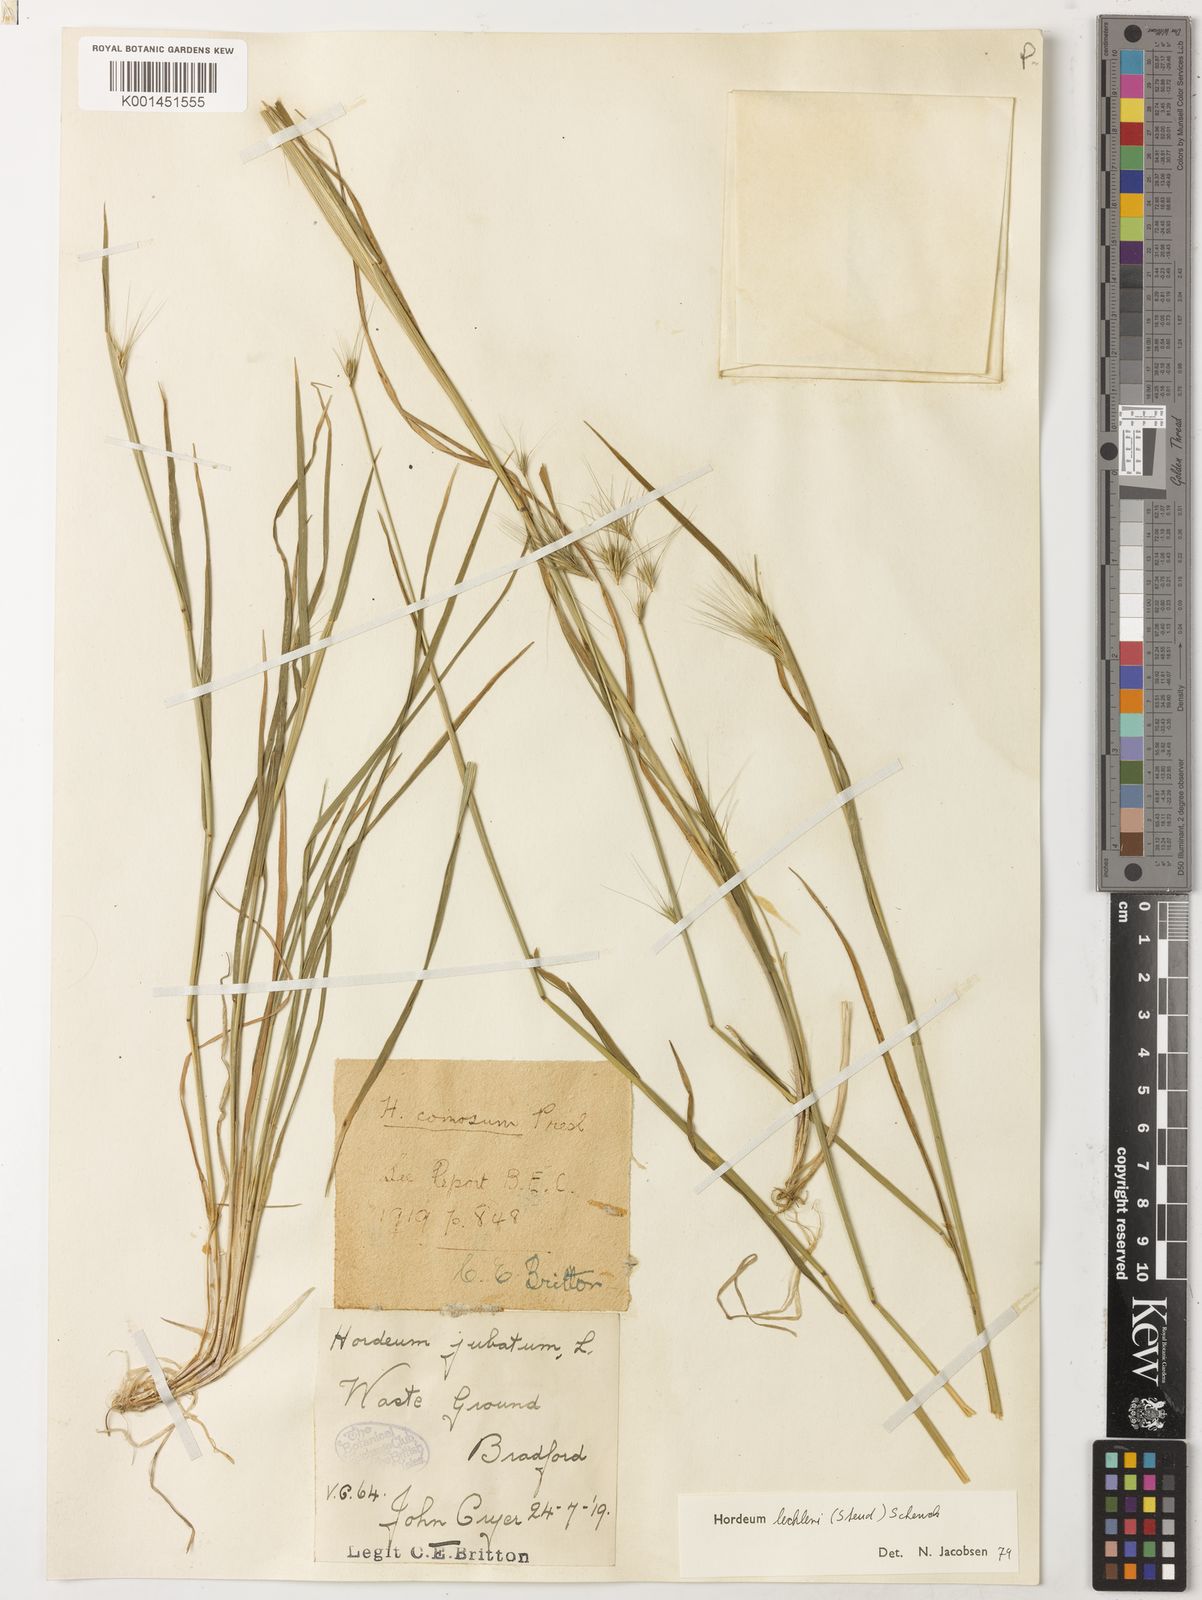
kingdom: Plantae
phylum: Tracheophyta
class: Liliopsida
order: Poales
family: Poaceae
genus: Hordeum
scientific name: Hordeum lechleri
